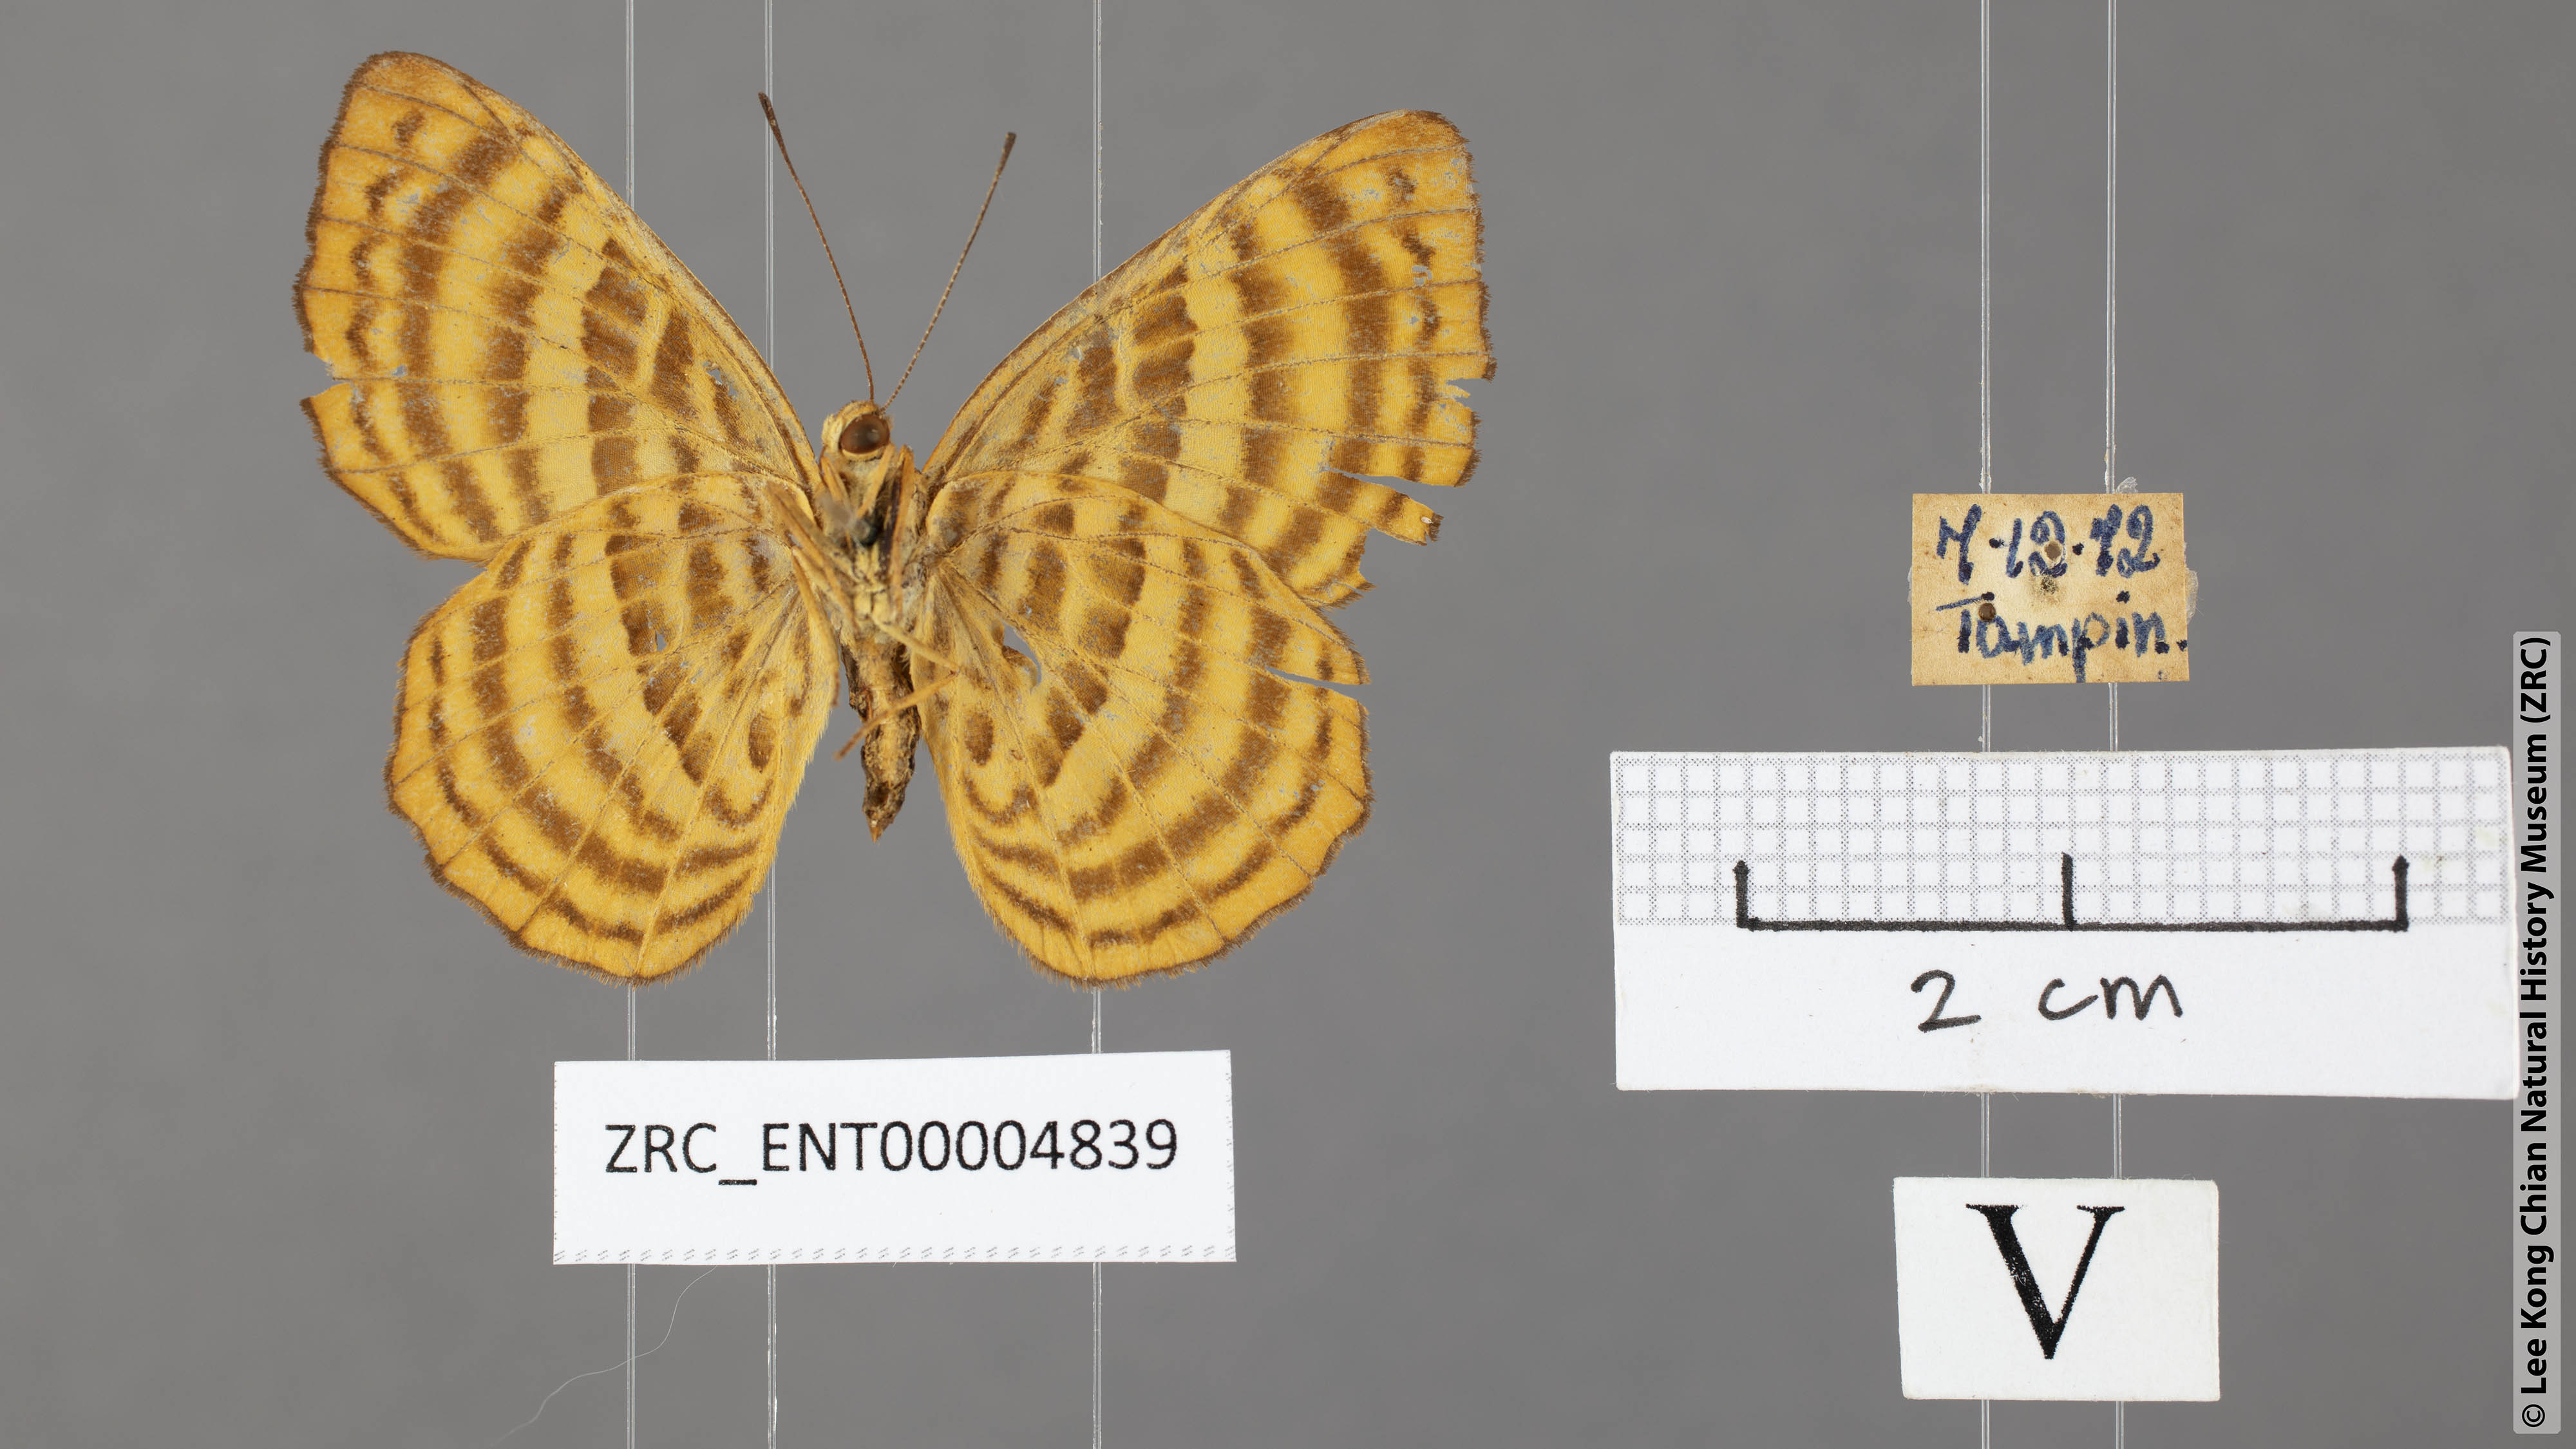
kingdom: Animalia
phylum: Arthropoda
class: Insecta
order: Lepidoptera
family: Riodinidae
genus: Zemeros
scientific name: Zemeros emesoides
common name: Malay punchinello
